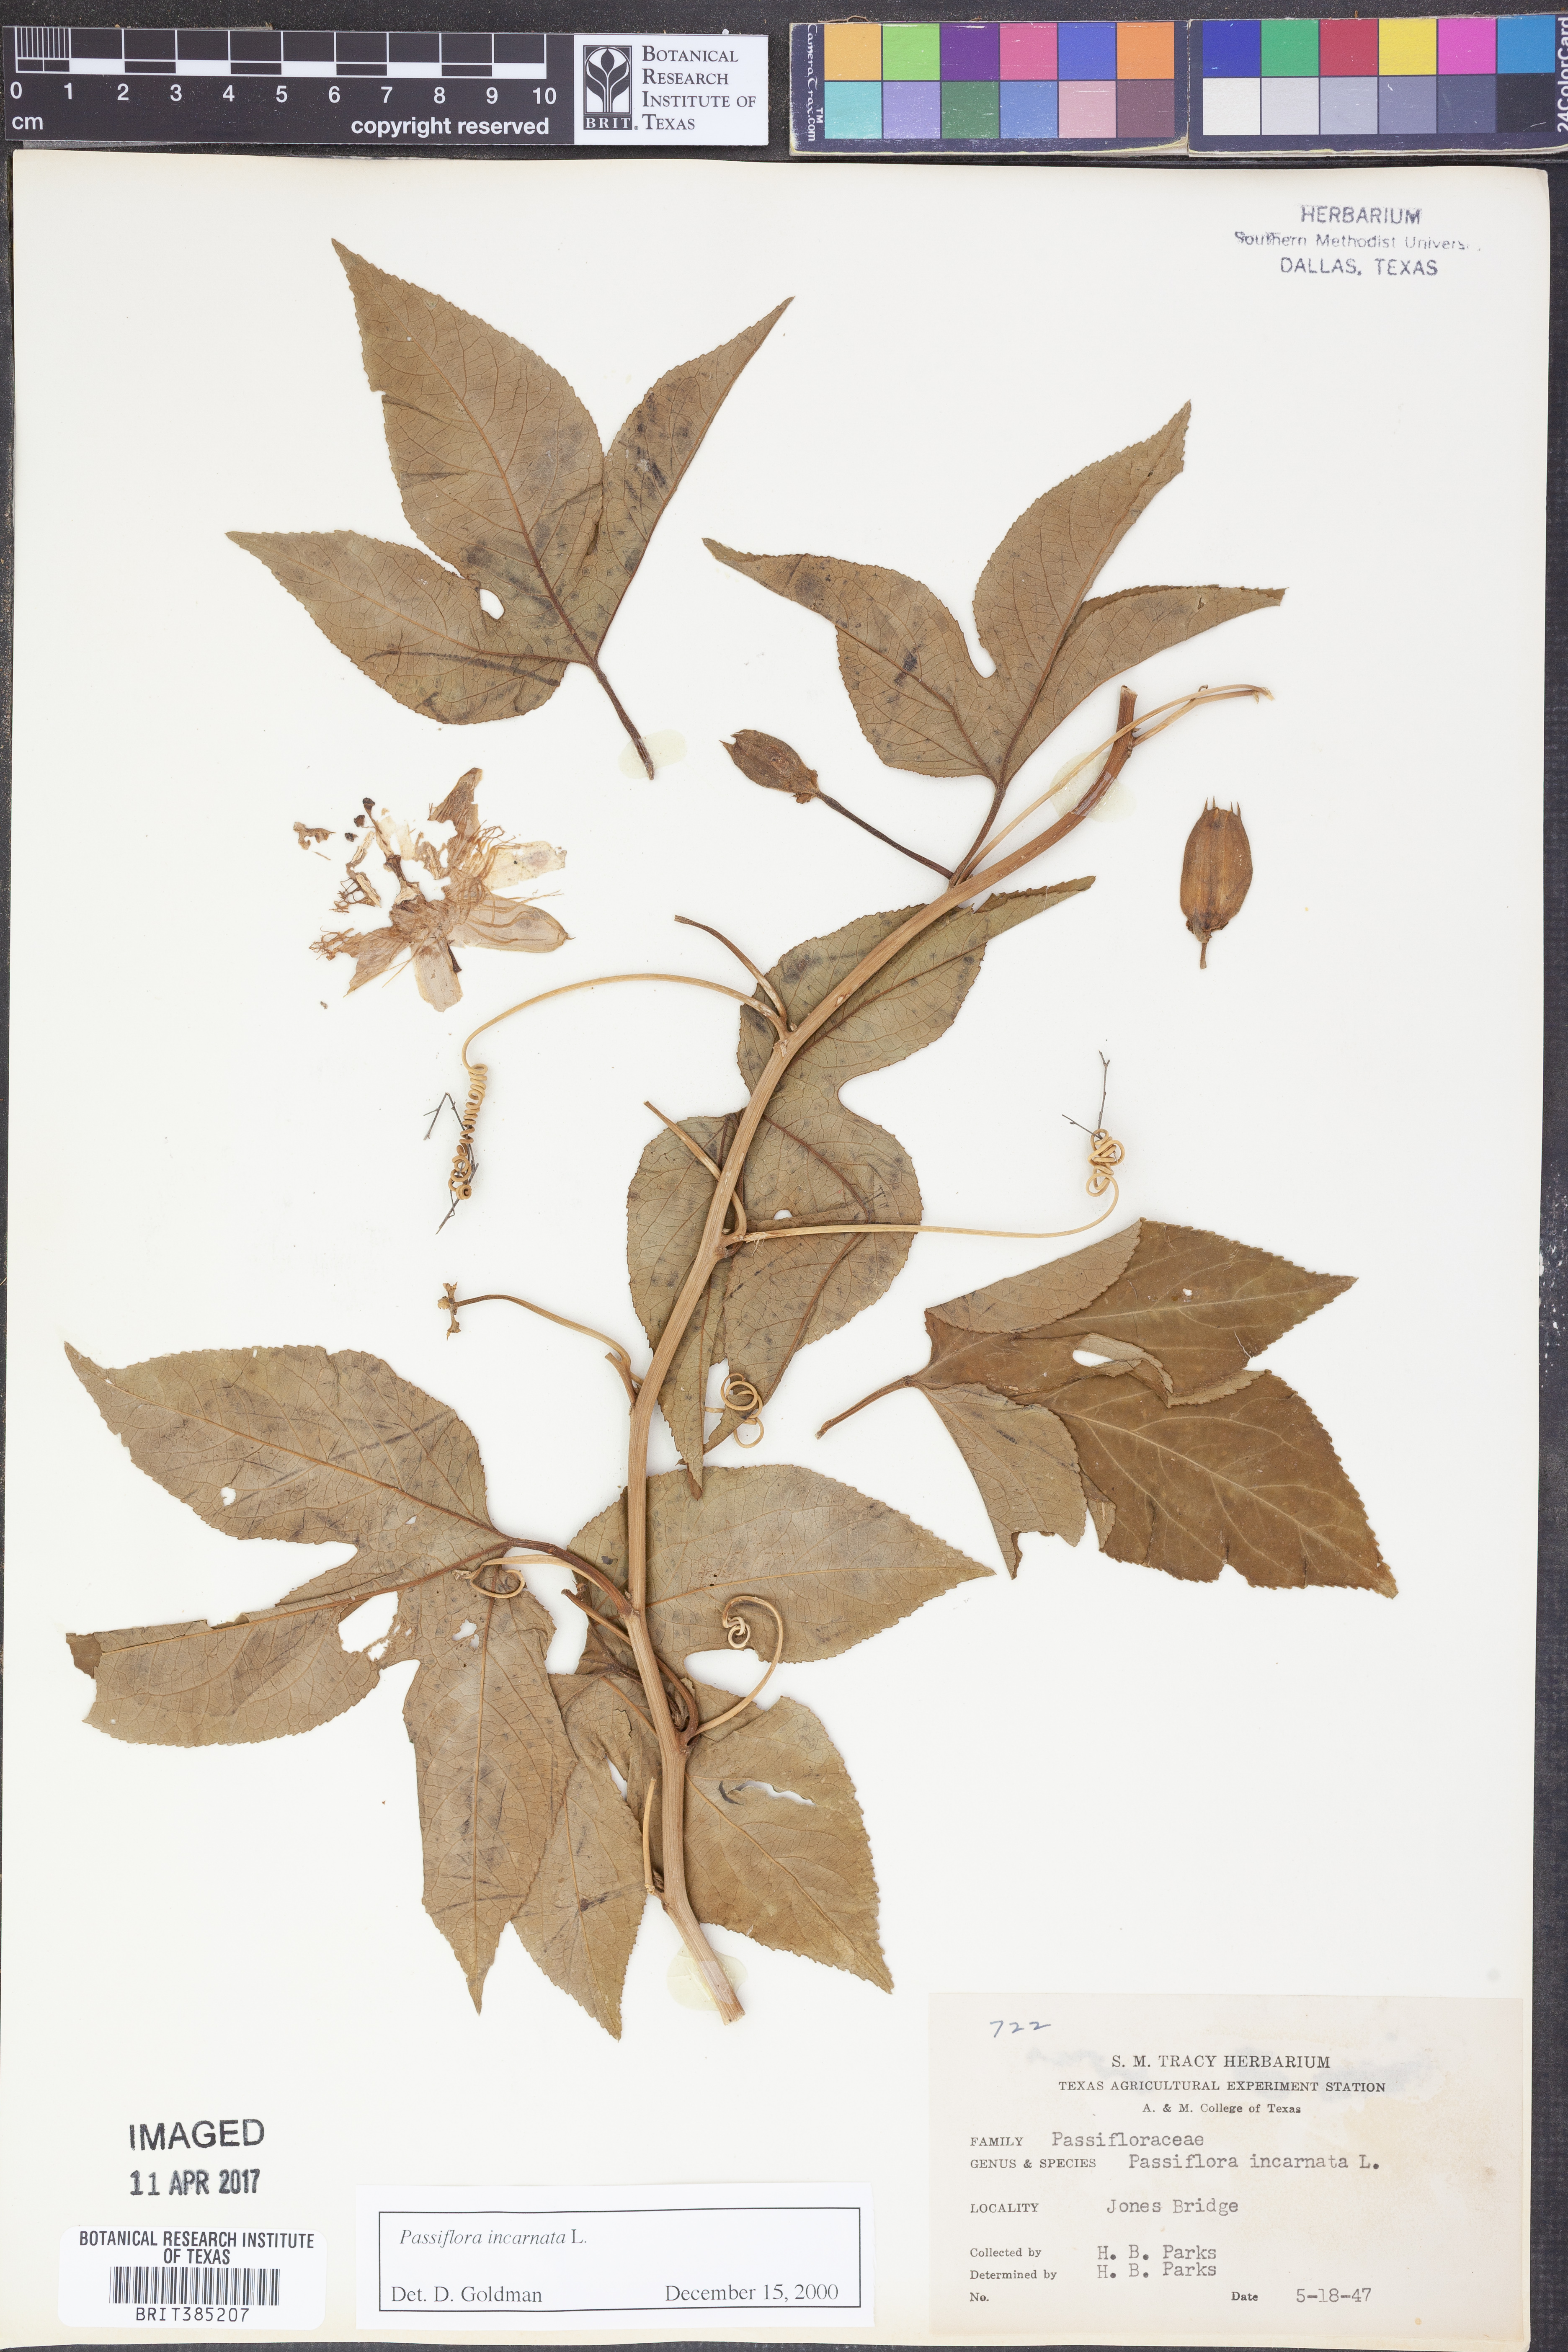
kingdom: Plantae
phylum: Tracheophyta
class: Magnoliopsida
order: Malpighiales
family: Passifloraceae
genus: Passiflora
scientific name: Passiflora incarnata
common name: Apricot-vine
